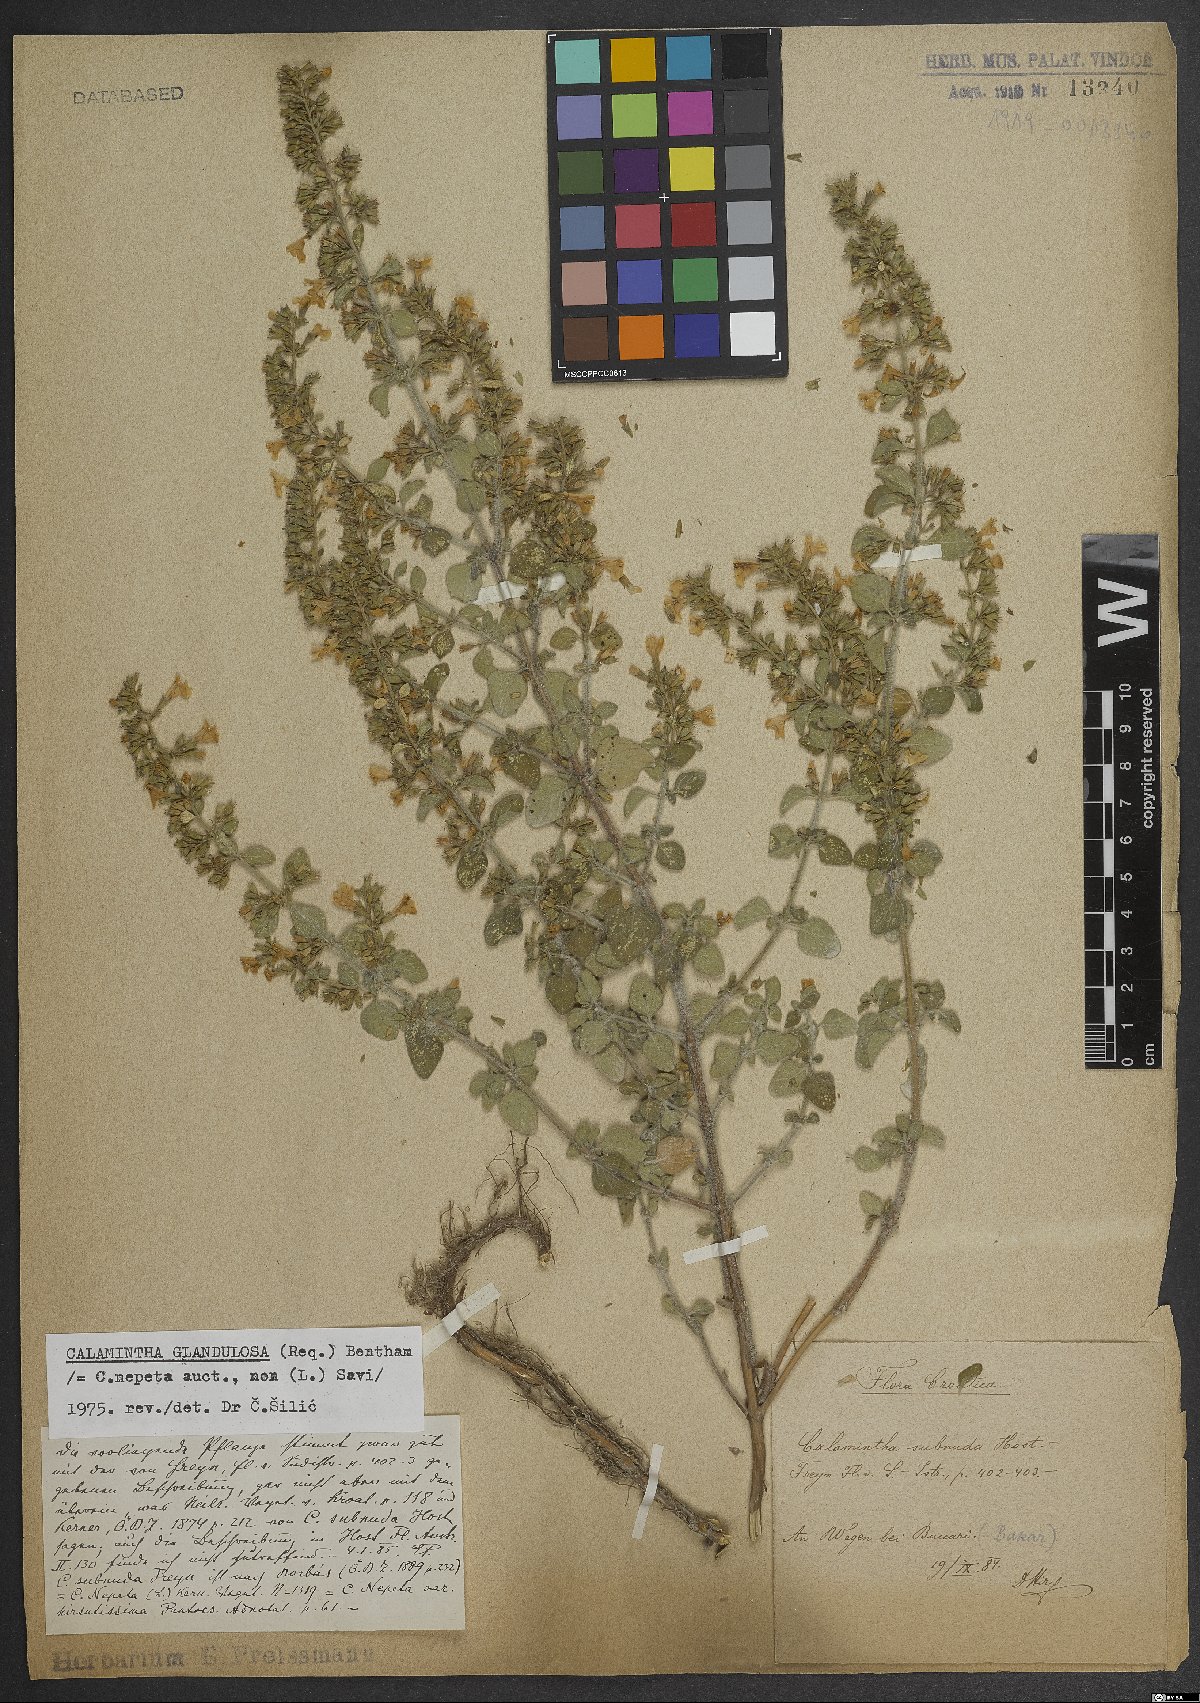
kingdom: Plantae
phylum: Tracheophyta
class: Magnoliopsida
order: Lamiales
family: Lamiaceae
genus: Clinopodium
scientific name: Clinopodium nepeta
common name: Lesser calamint
